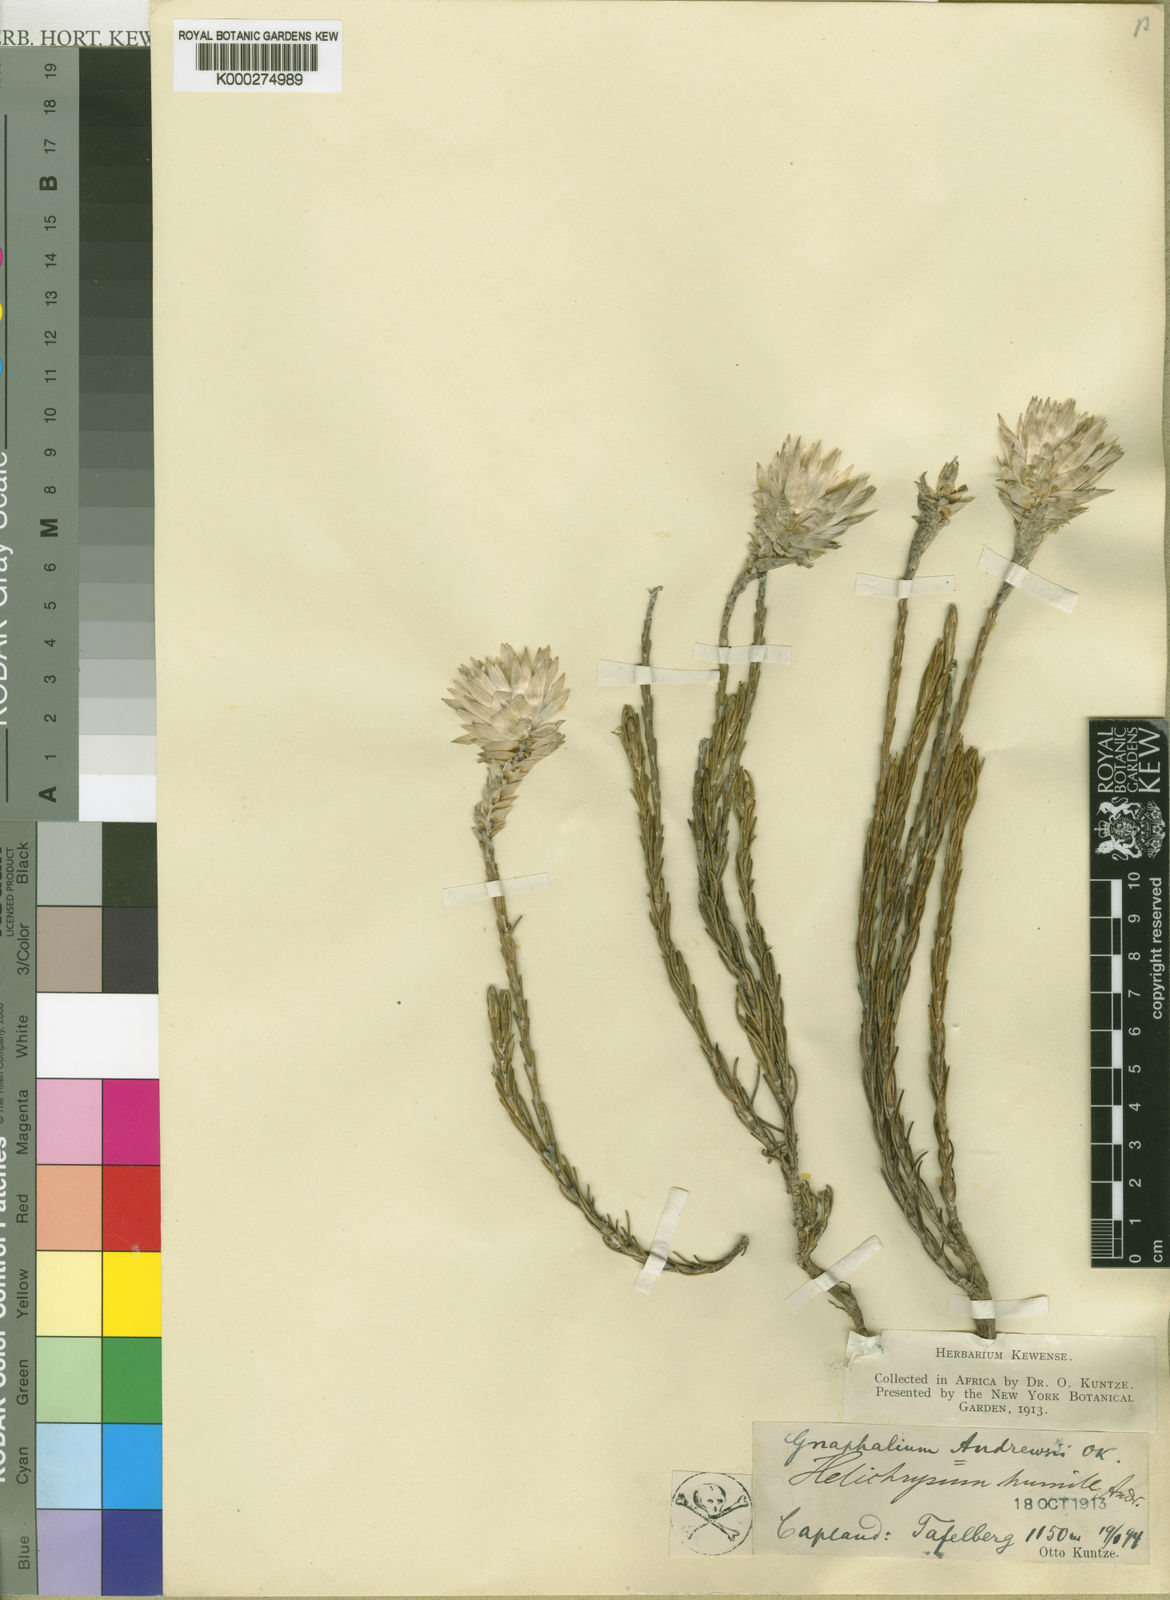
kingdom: Plantae
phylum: Tracheophyta
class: Magnoliopsida
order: Asterales
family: Asteraceae
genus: Edmondia
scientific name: Edmondia pinifolia
